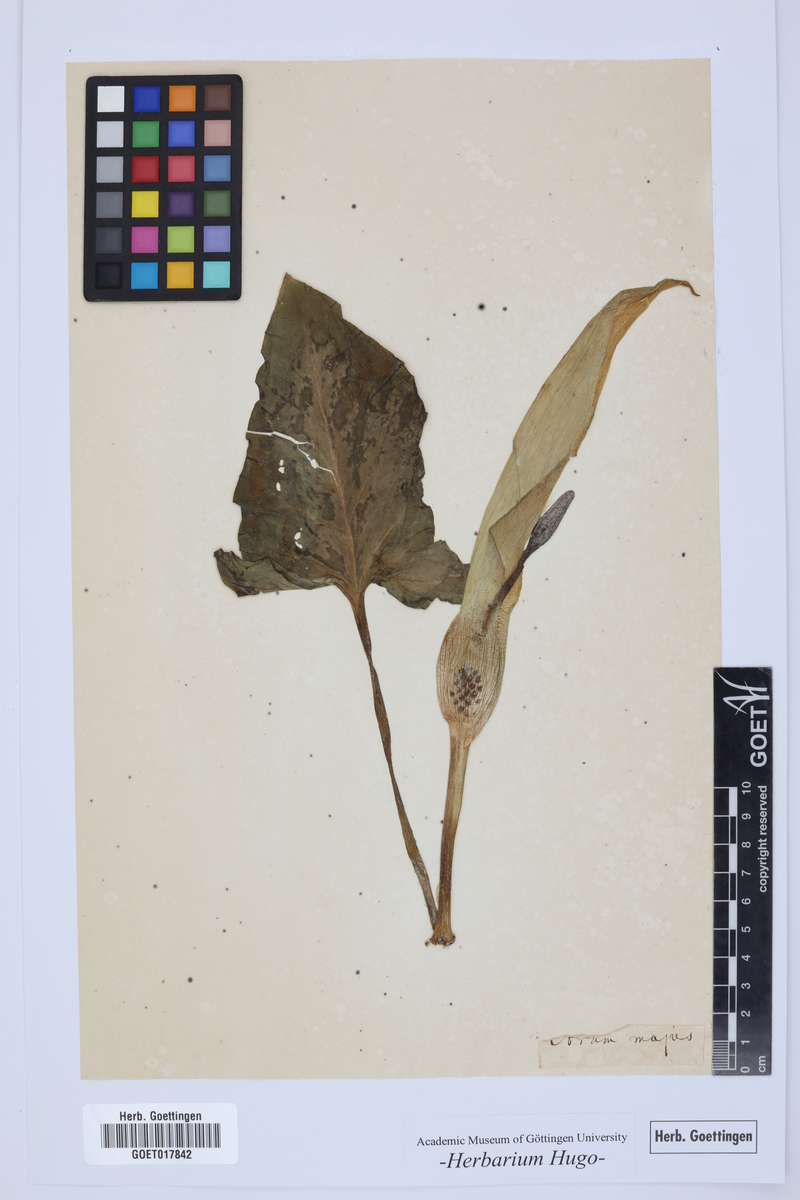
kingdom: Plantae
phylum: Tracheophyta
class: Liliopsida
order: Alismatales
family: Araceae
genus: Arum
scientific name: Arum
